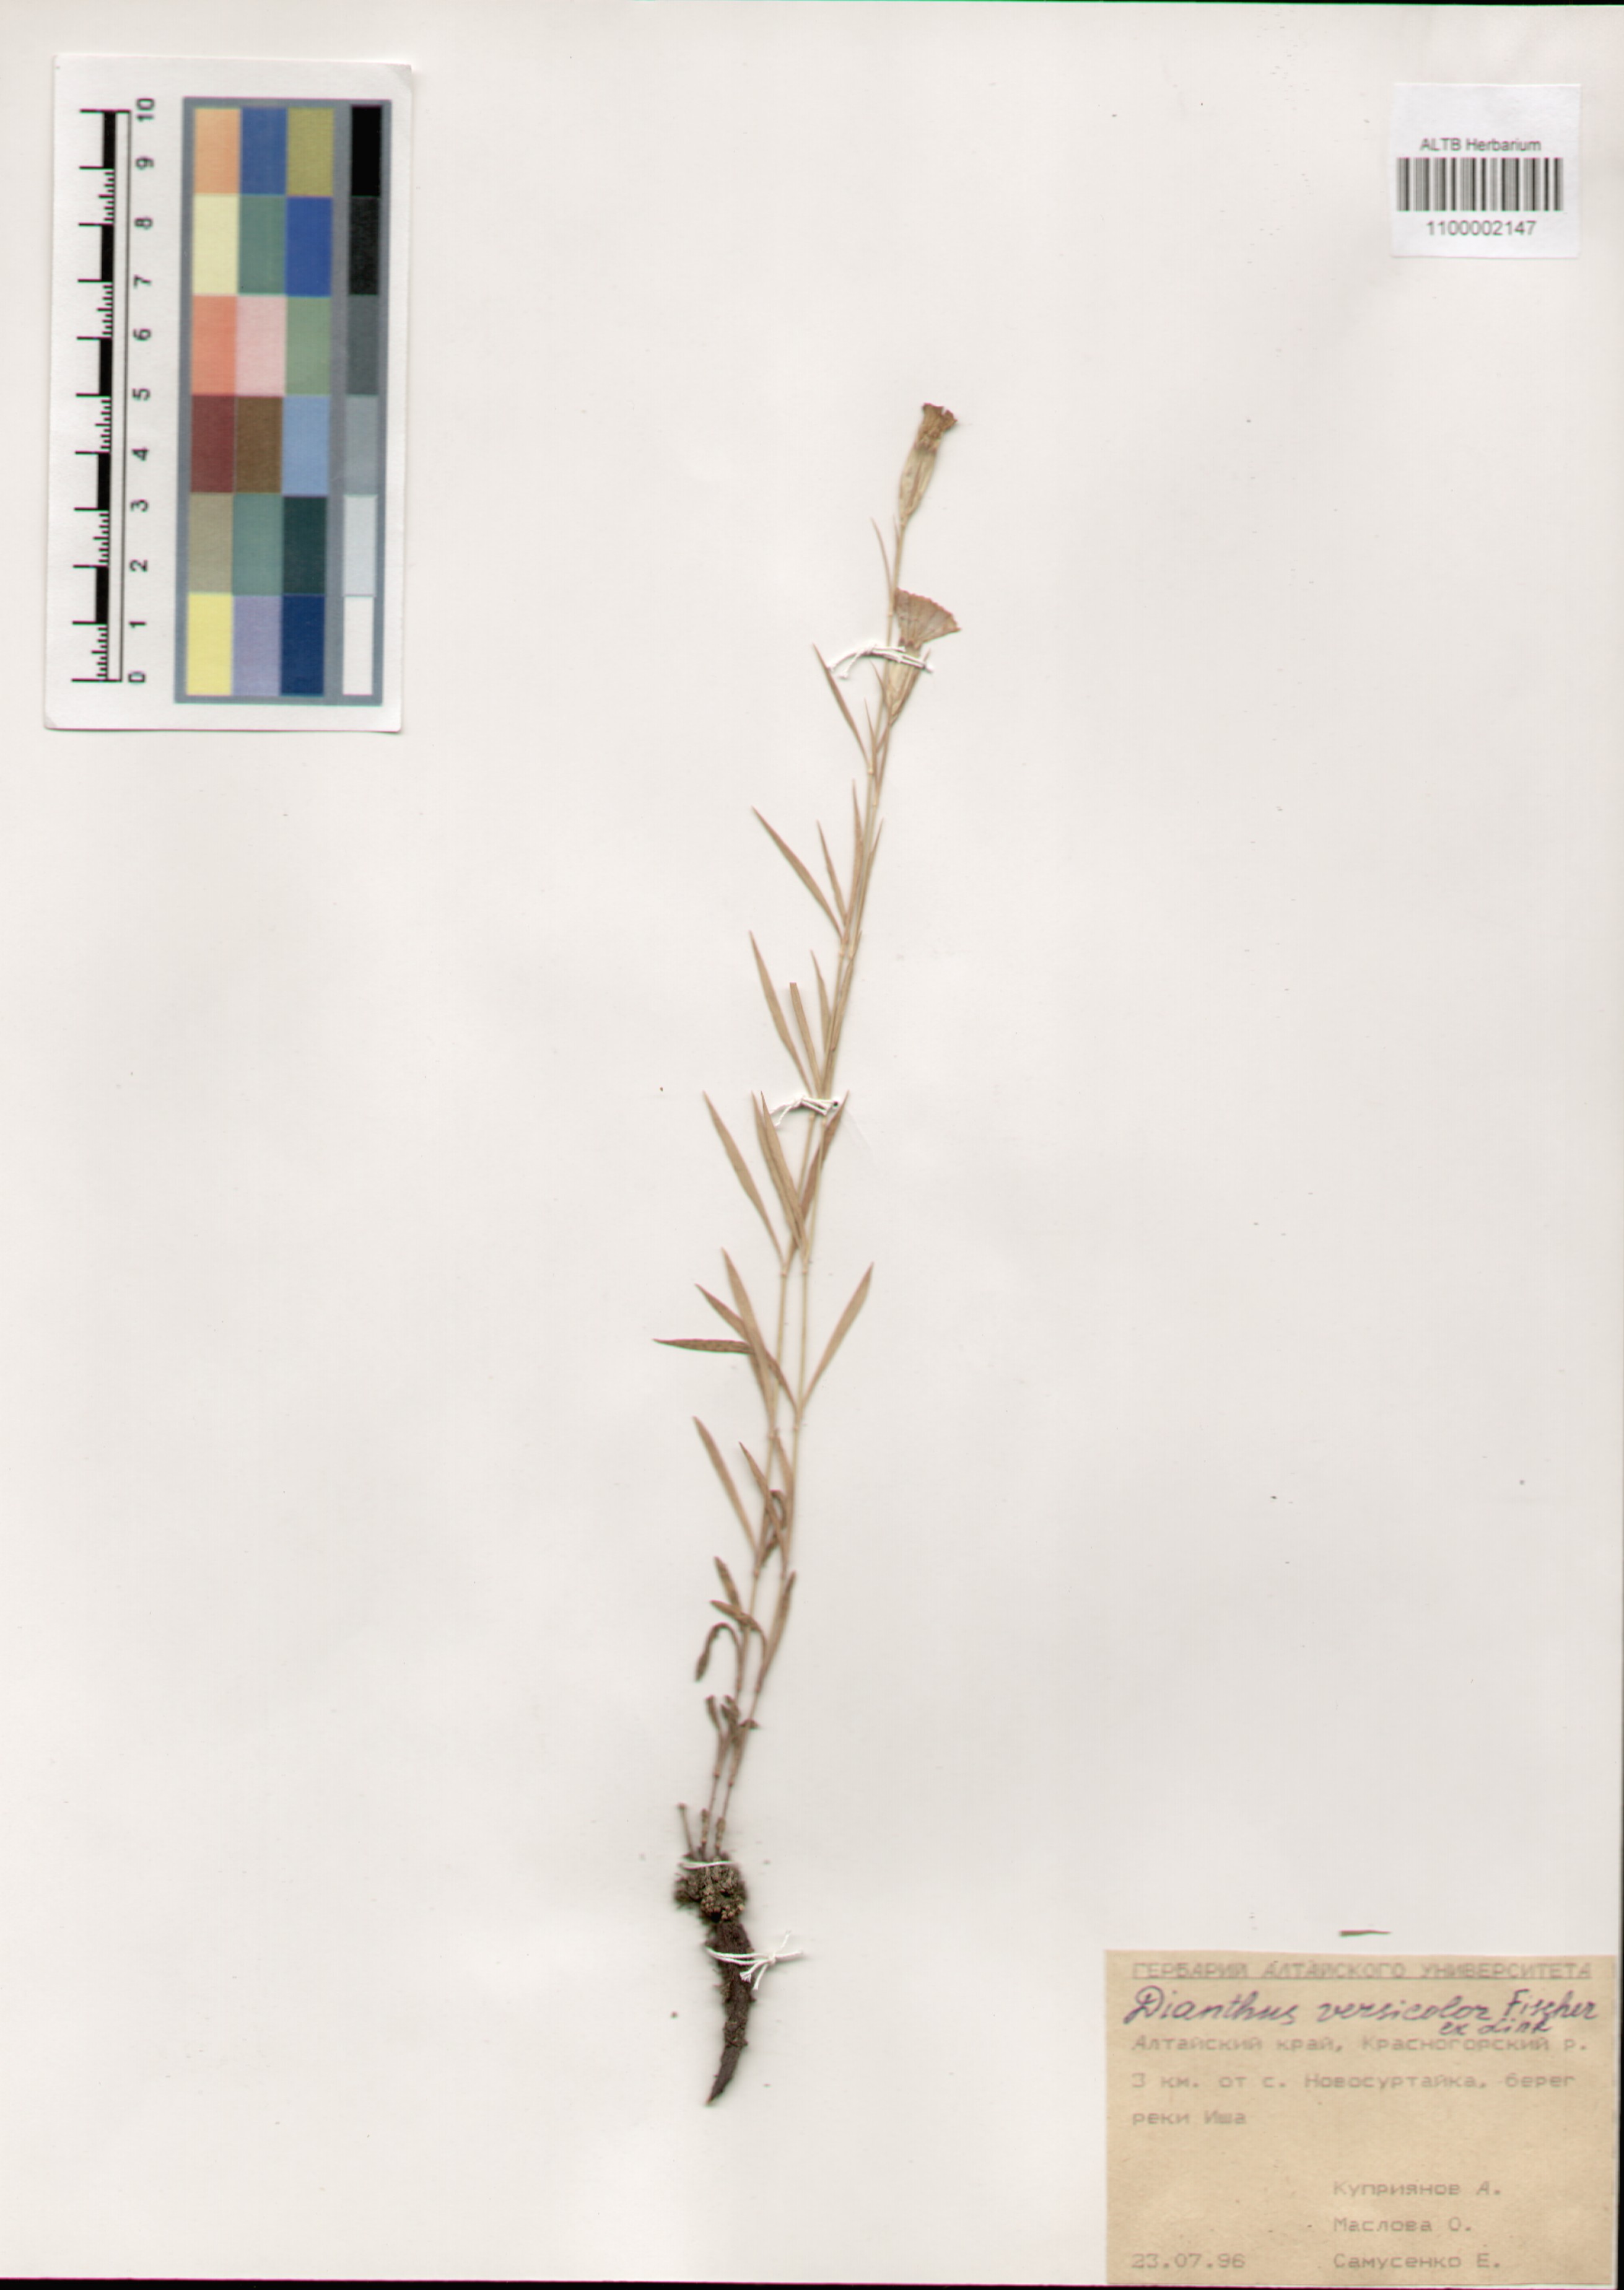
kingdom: Plantae
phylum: Tracheophyta
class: Magnoliopsida
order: Caryophyllales
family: Caryophyllaceae
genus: Dianthus
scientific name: Dianthus chinensis
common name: Rainbow pink
